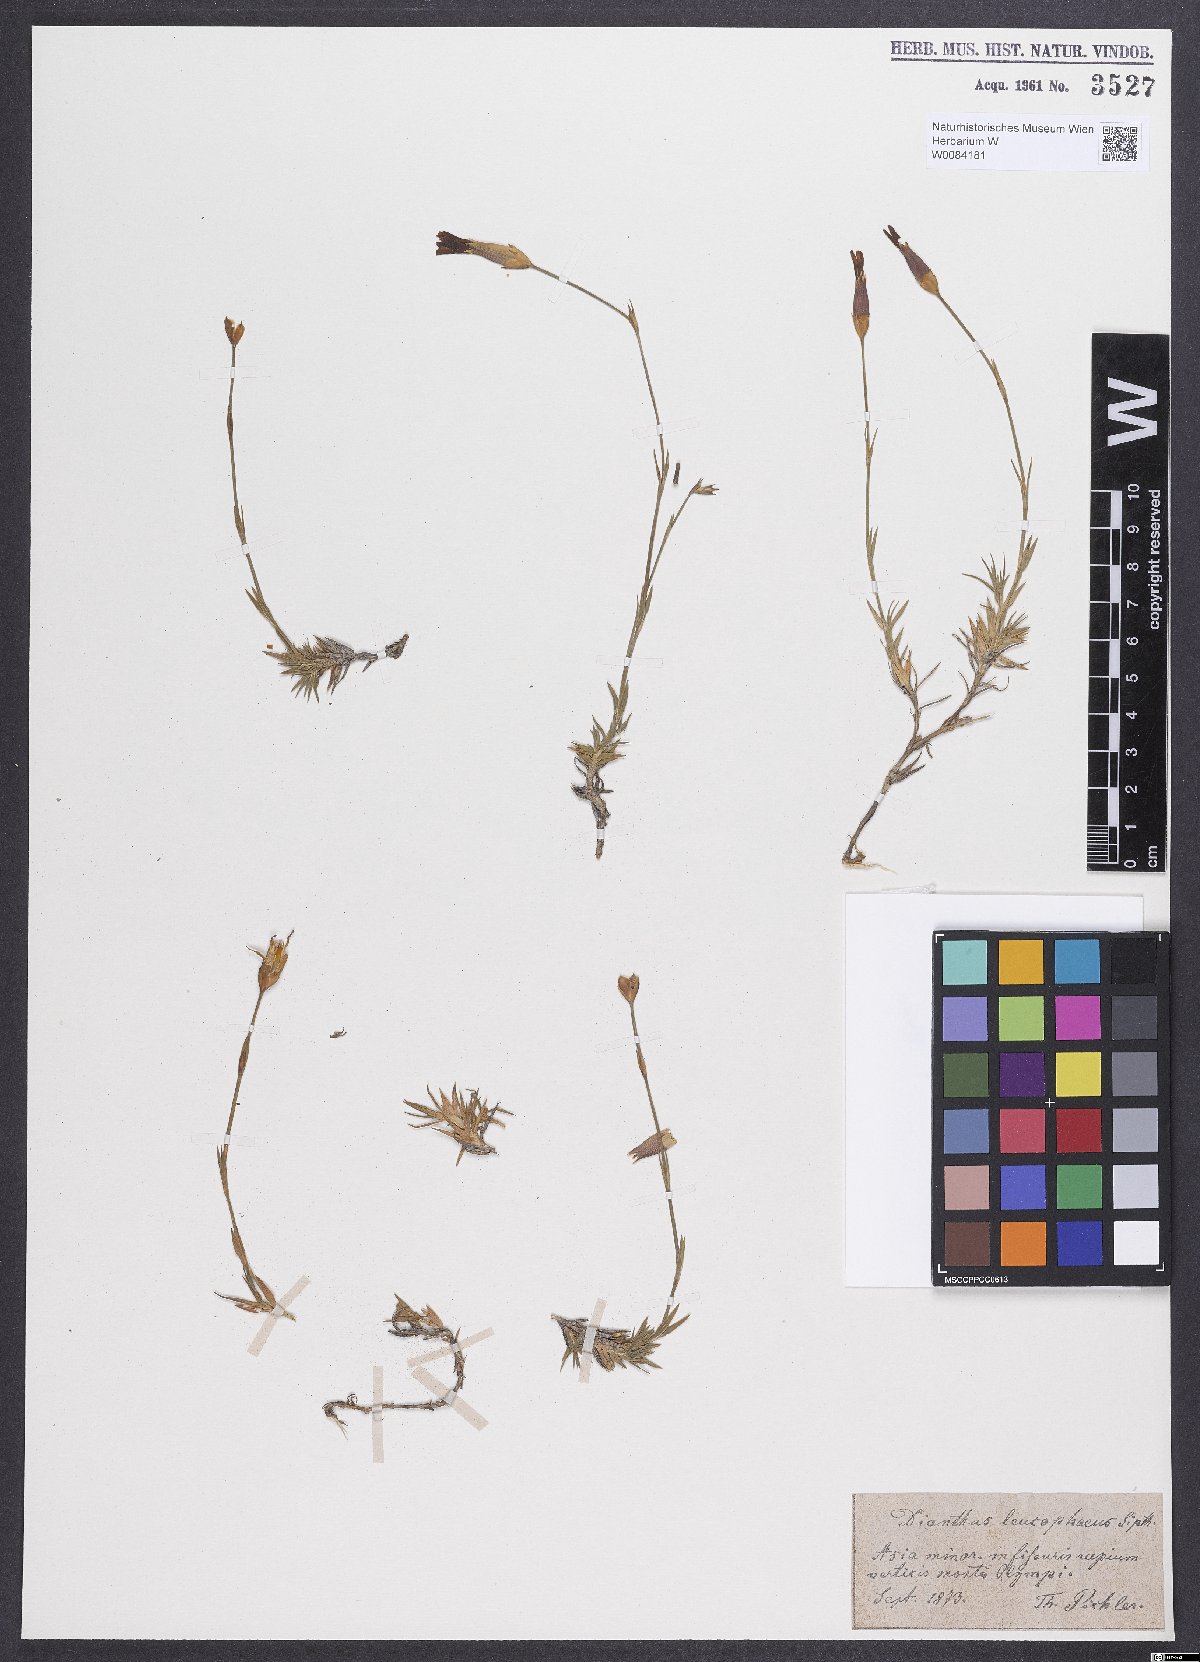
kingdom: Plantae
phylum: Tracheophyta
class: Magnoliopsida
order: Caryophyllales
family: Caryophyllaceae
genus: Dianthus
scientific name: Dianthus leucophaeus
